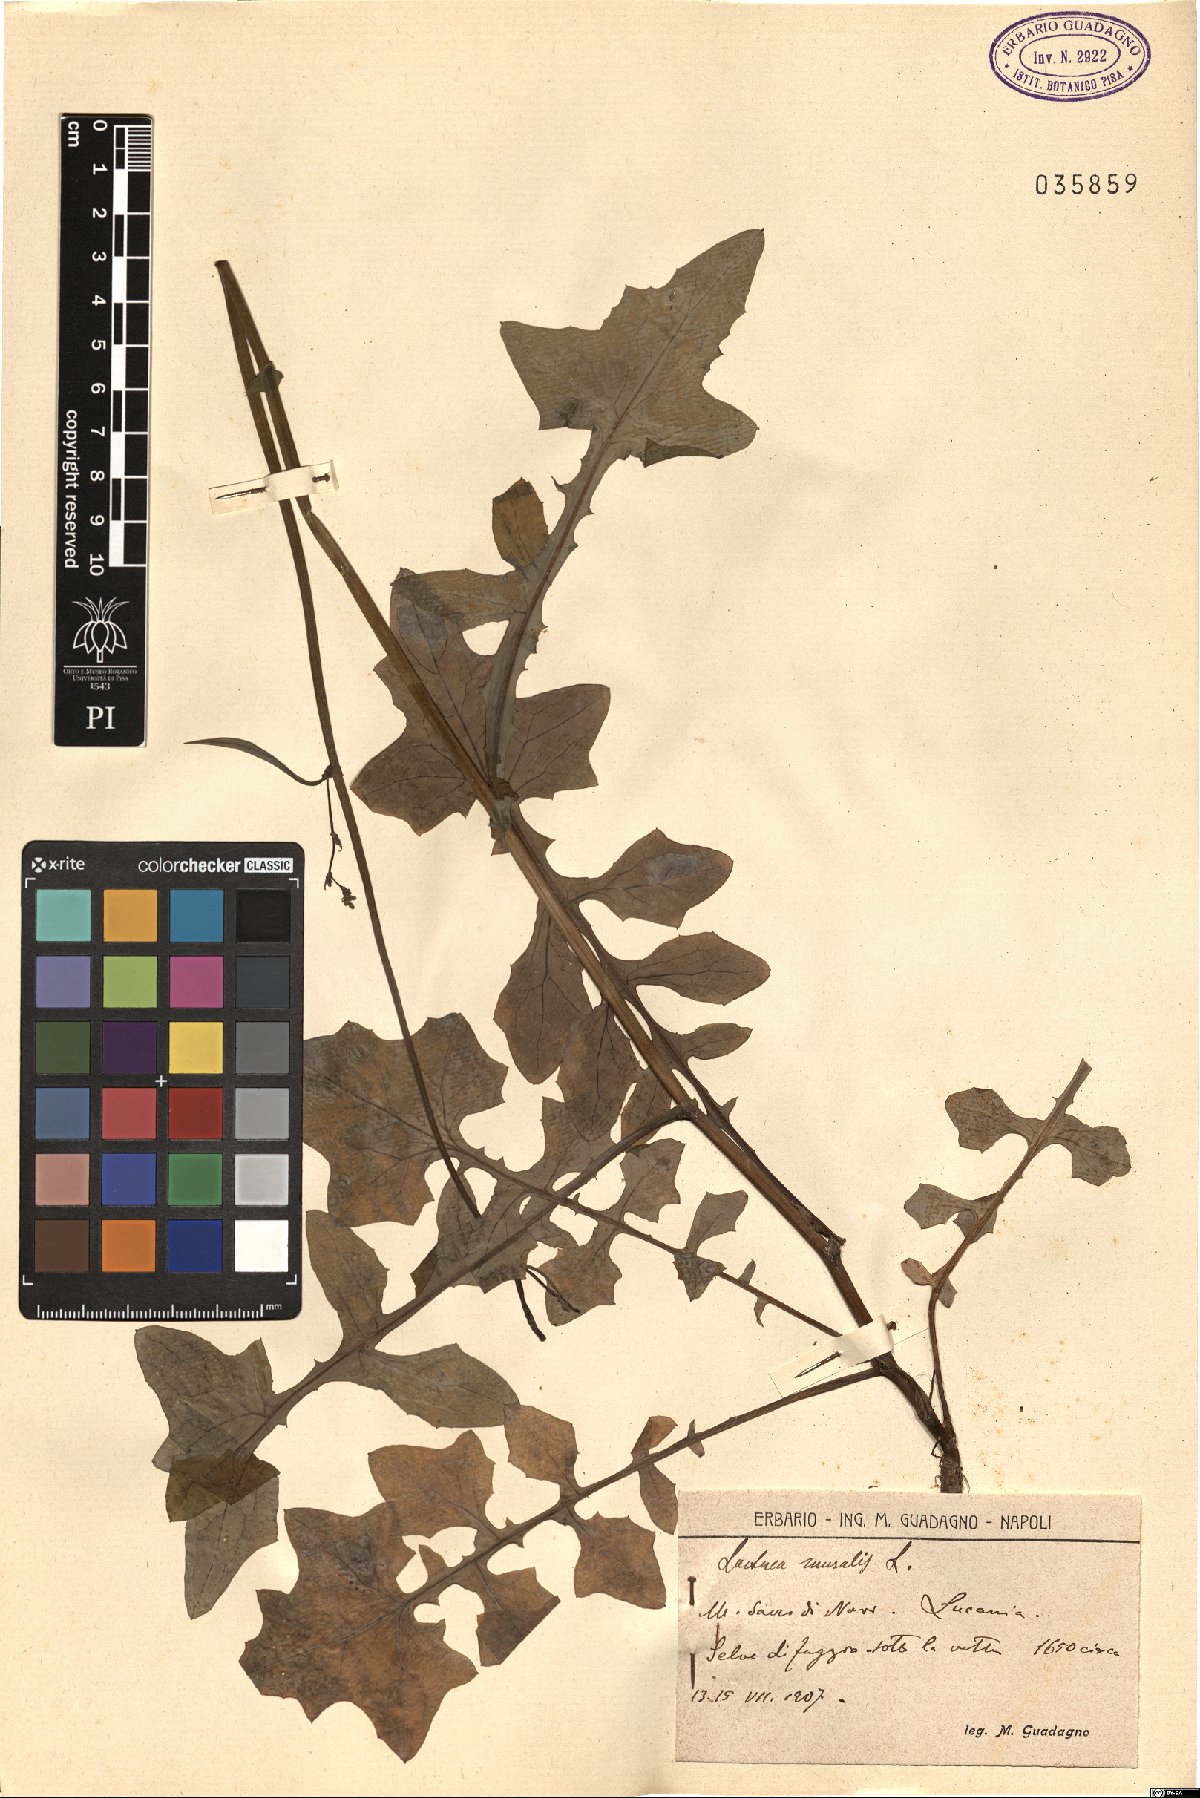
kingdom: Plantae
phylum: Tracheophyta
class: Magnoliopsida
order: Asterales
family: Asteraceae
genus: Mycelis
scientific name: Mycelis muralis
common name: Wall lettuce
